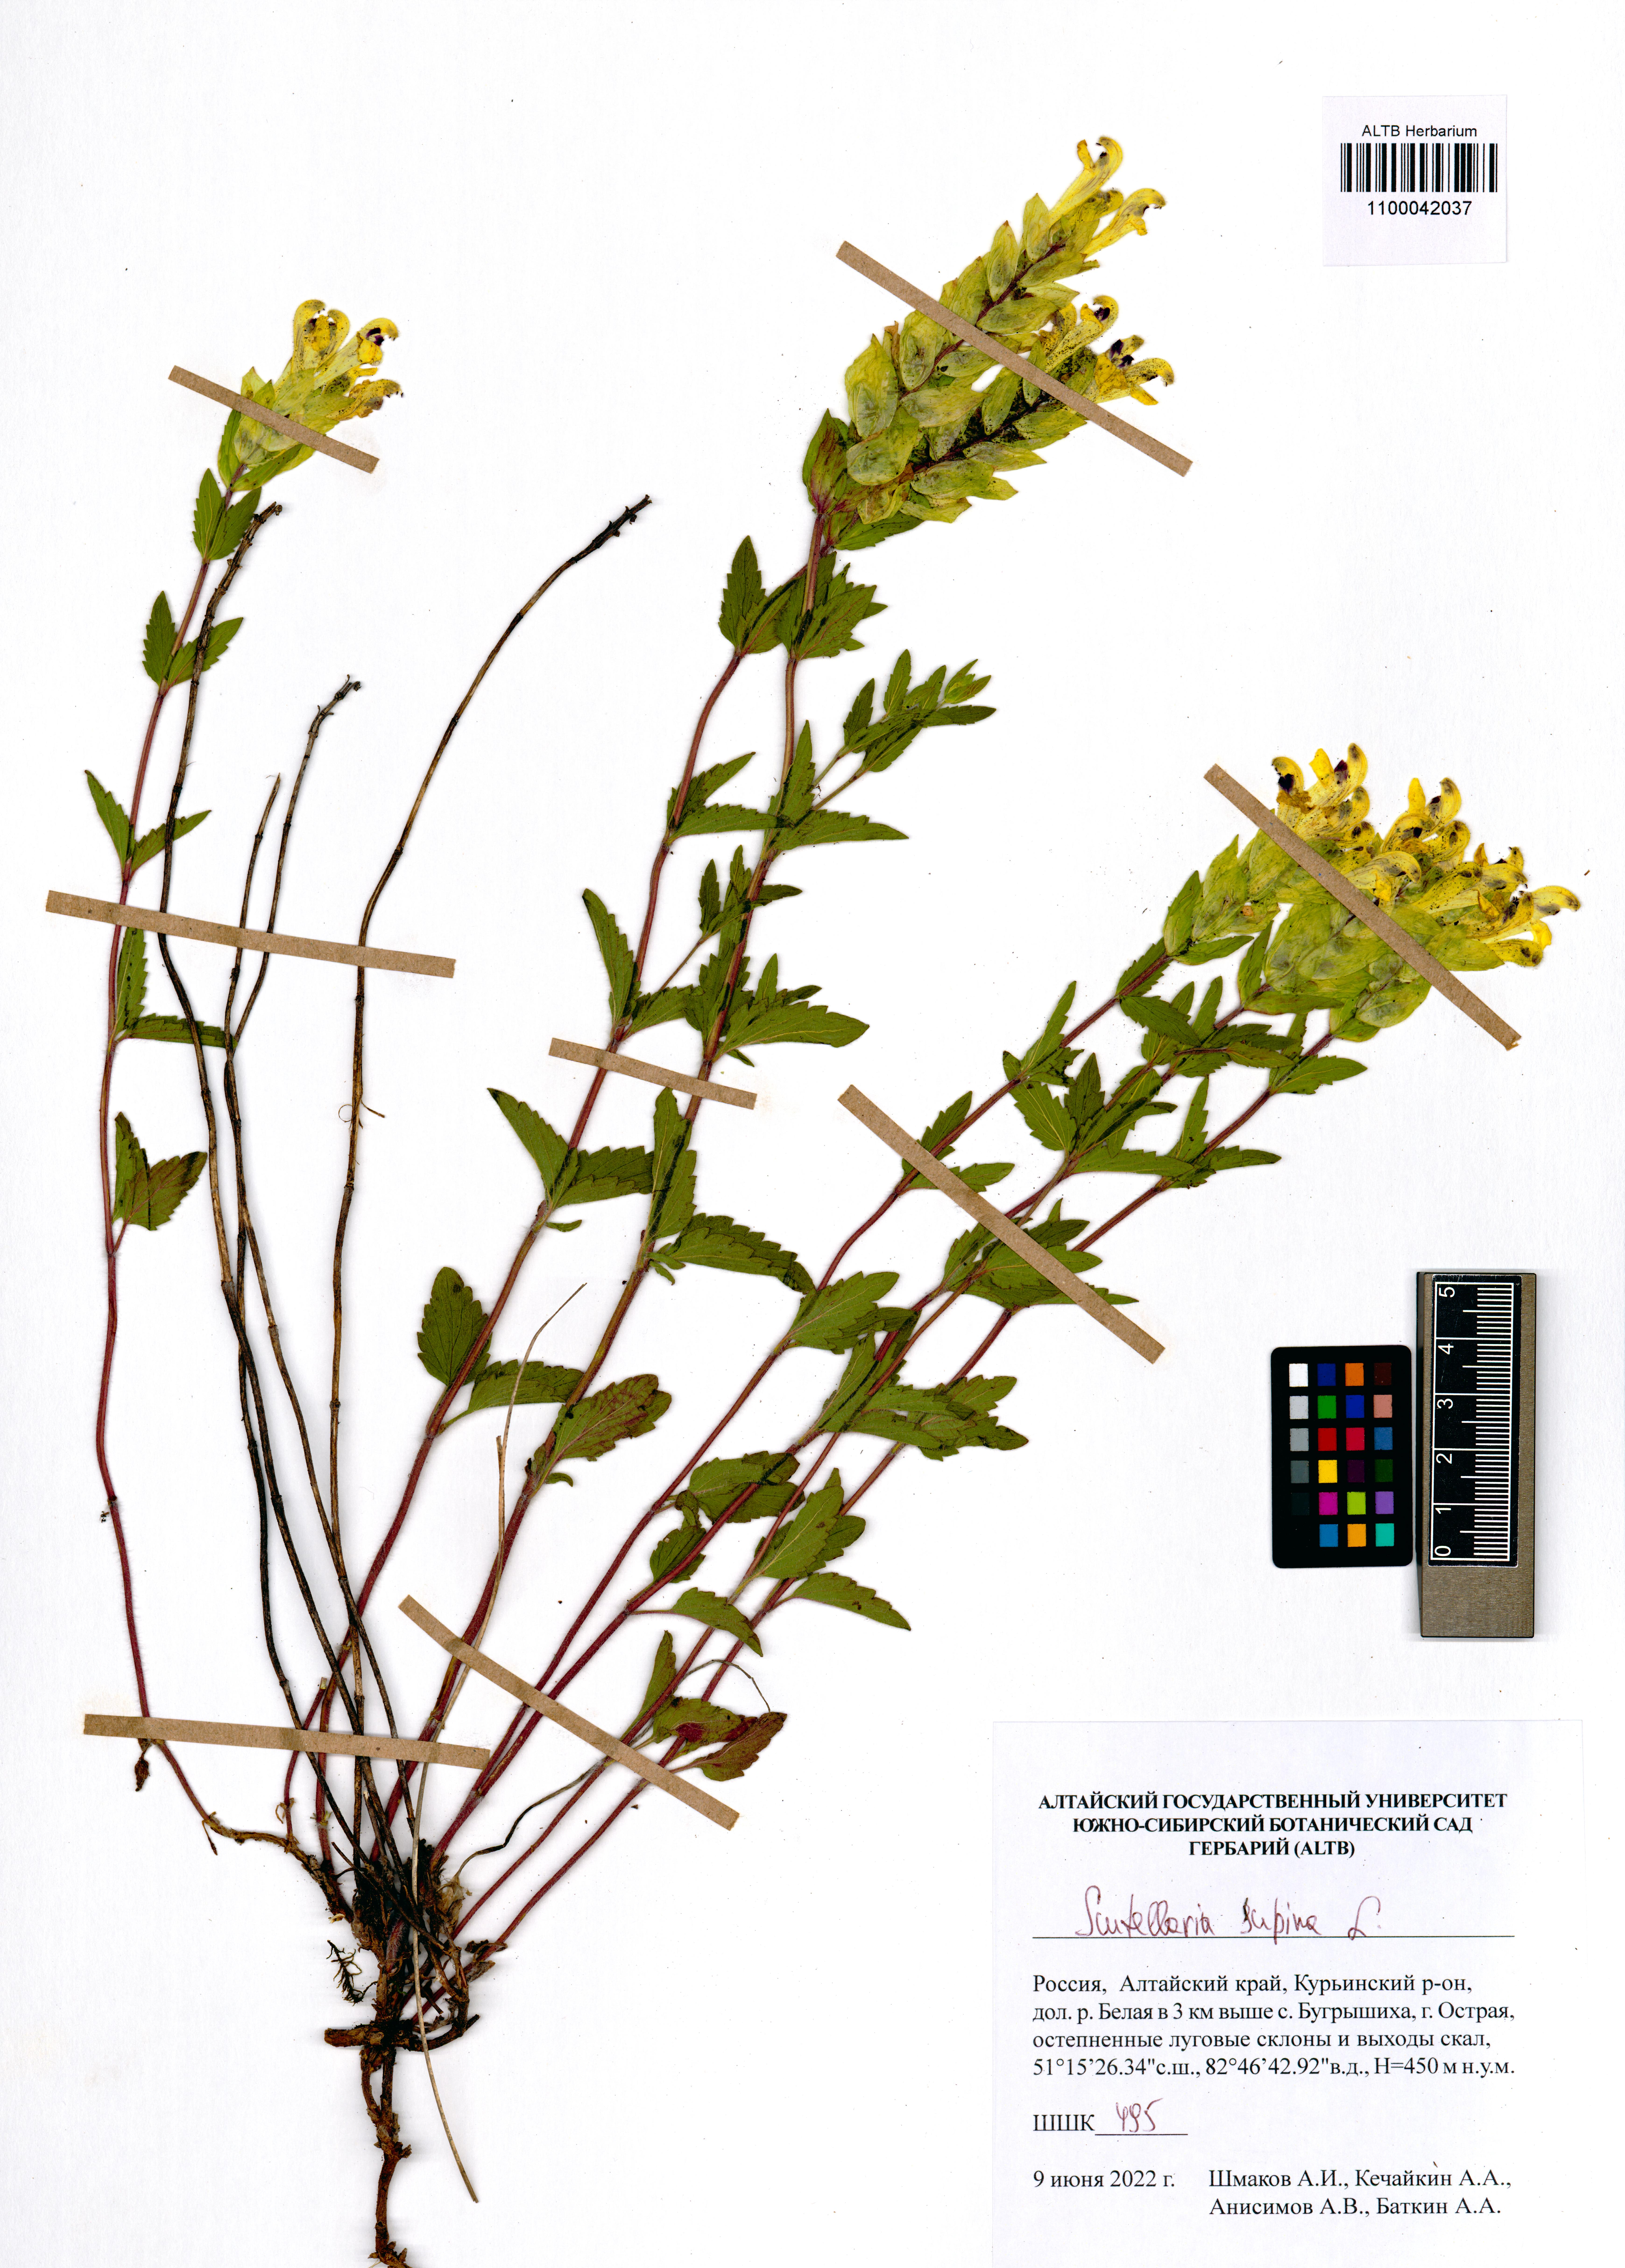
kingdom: Plantae
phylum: Tracheophyta
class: Magnoliopsida
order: Lamiales
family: Lamiaceae
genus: Scutellaria
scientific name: Scutellaria supina
